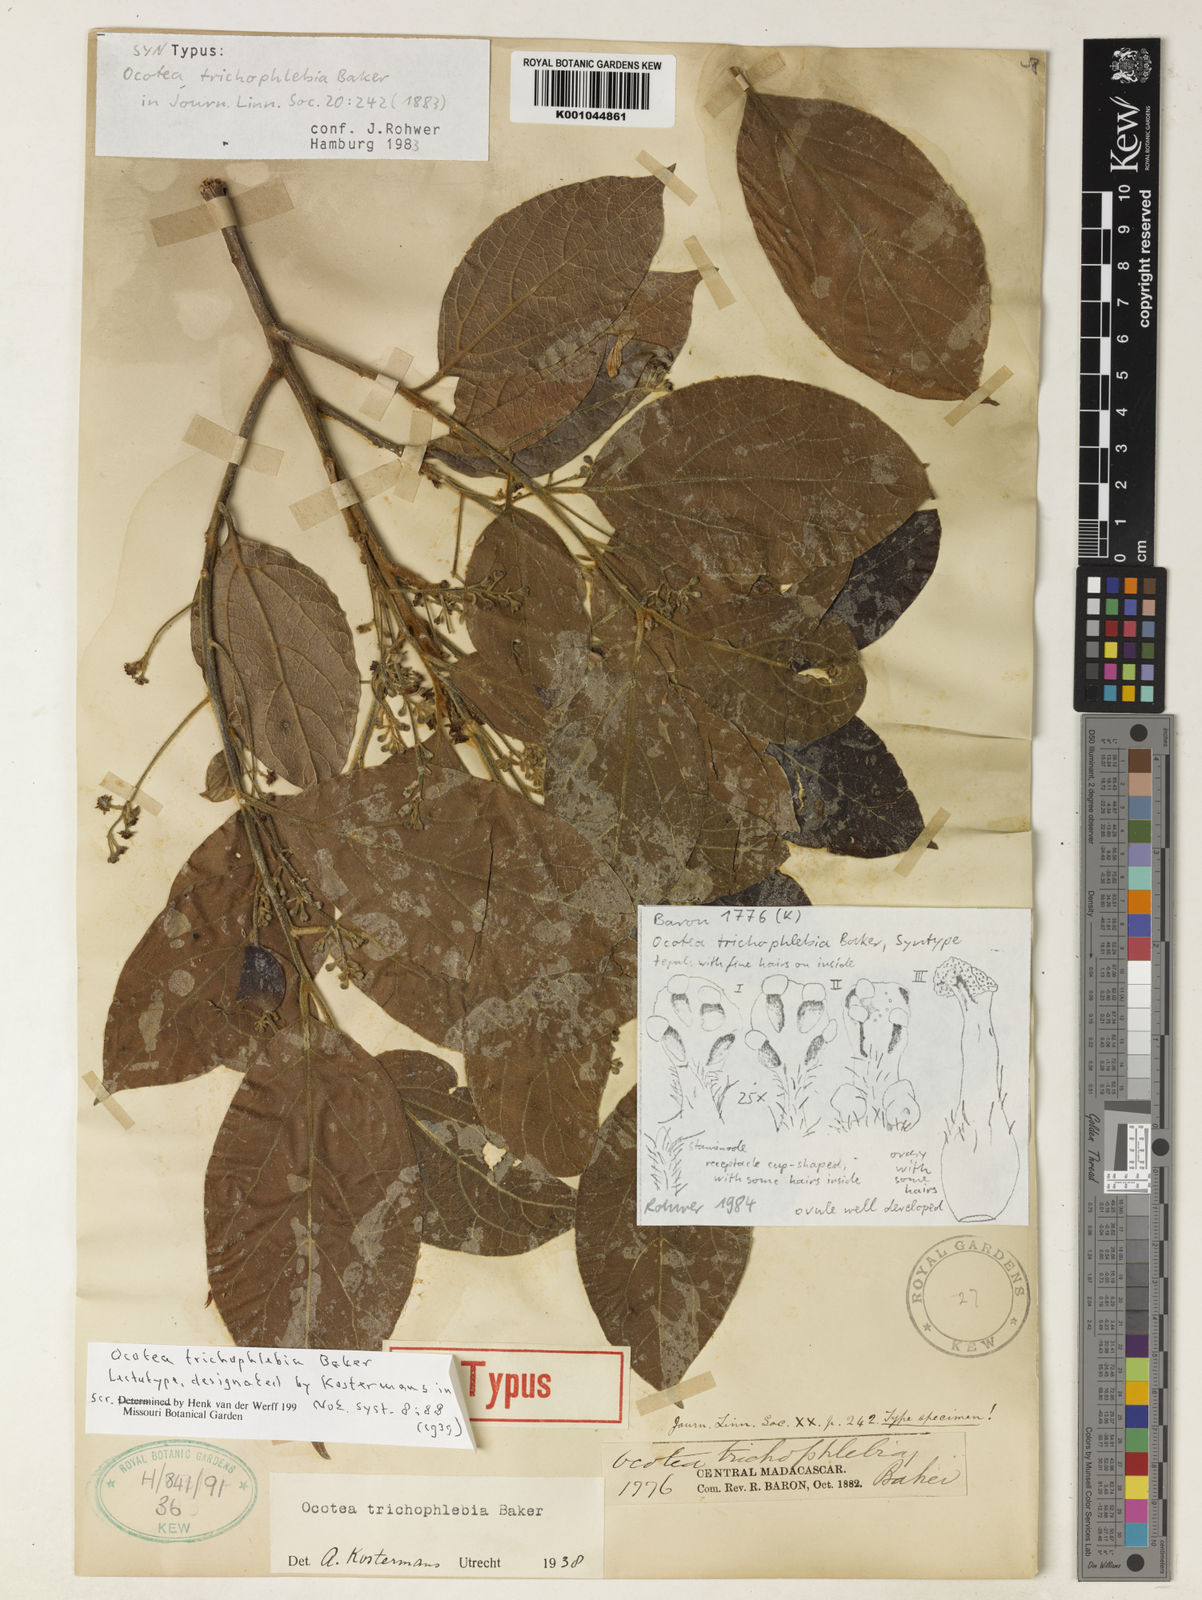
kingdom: Plantae
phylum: Tracheophyta
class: Magnoliopsida
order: Laurales
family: Lauraceae
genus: Mespilodaphne
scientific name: Mespilodaphne trichophlebia
